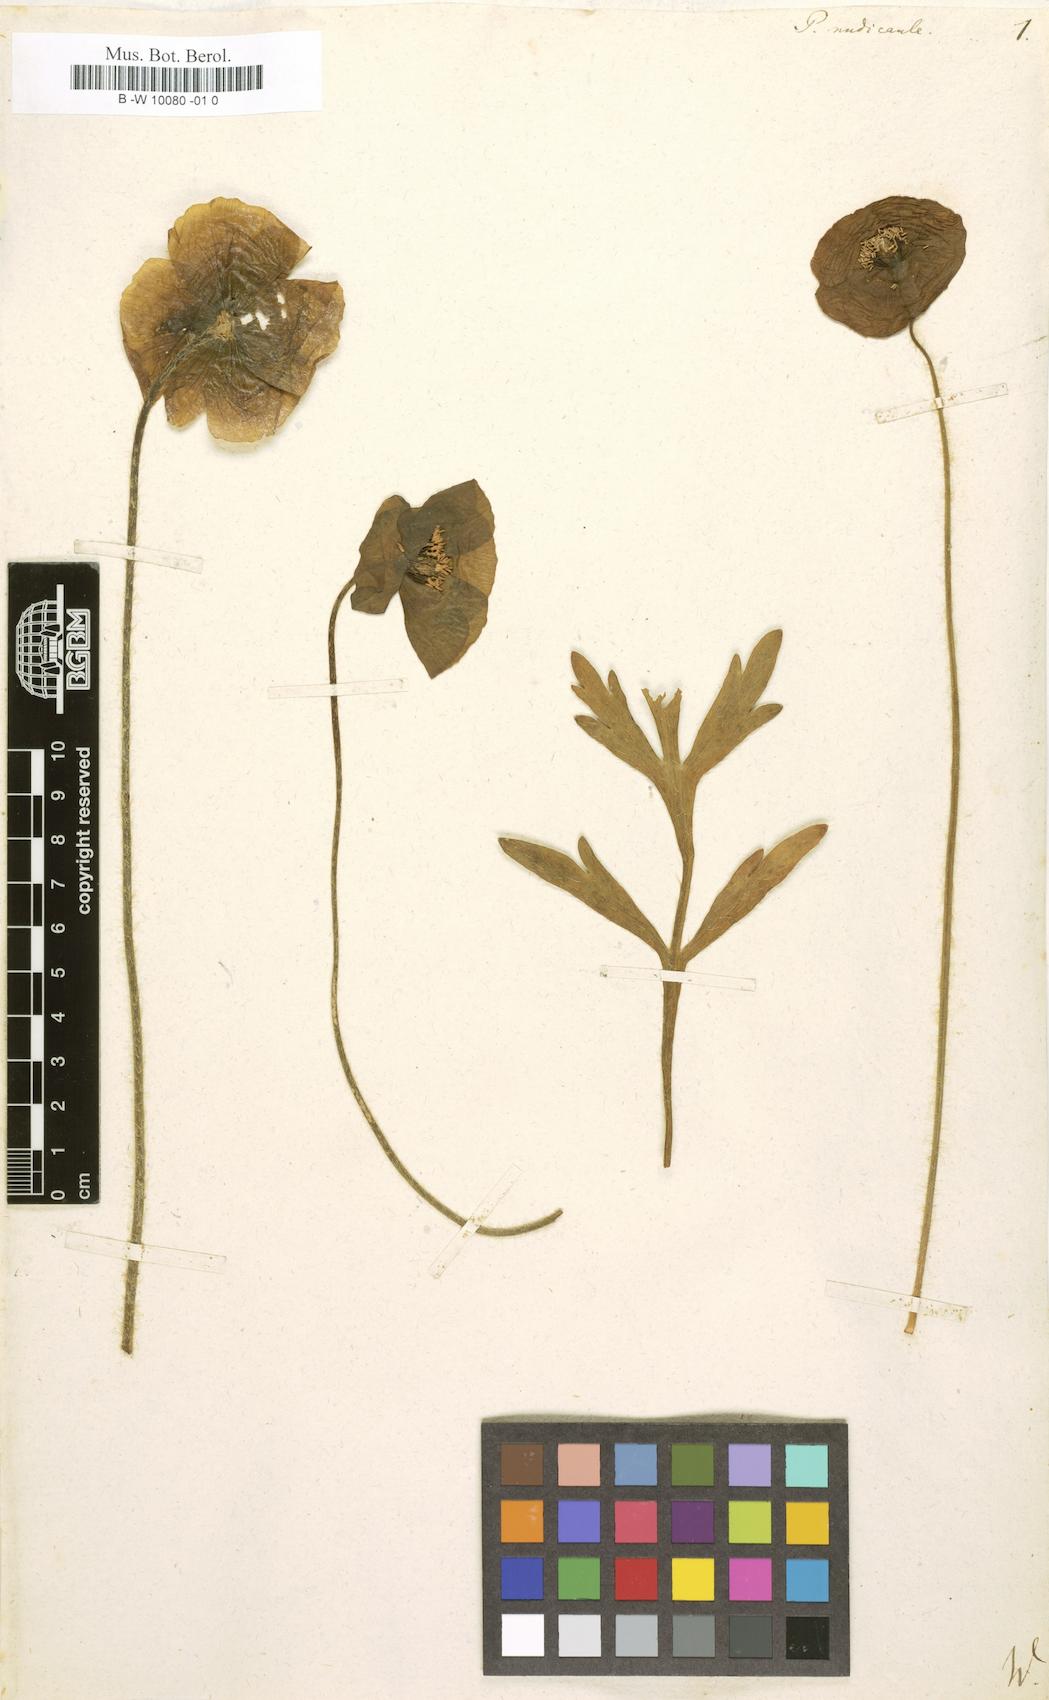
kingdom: Plantae
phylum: Tracheophyta
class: Magnoliopsida
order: Ranunculales
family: Papaveraceae
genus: Papaver
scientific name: Papaver nudicaule
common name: Arctic poppy
